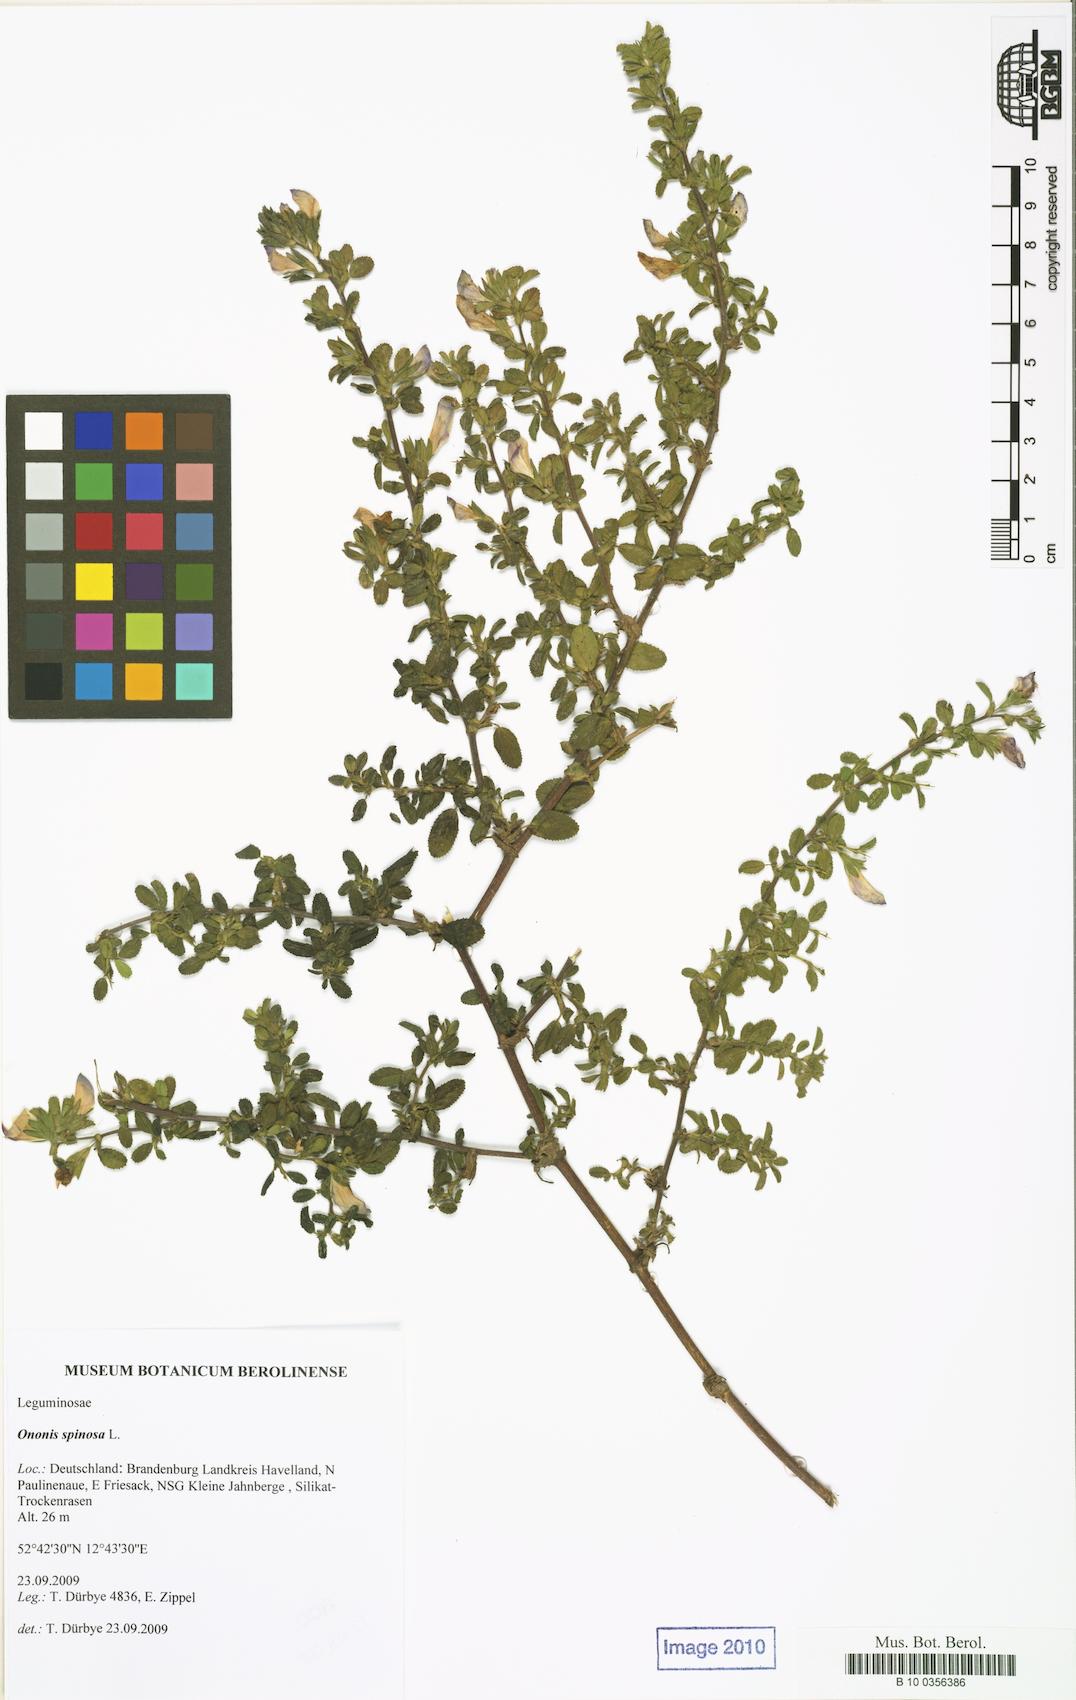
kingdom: Plantae
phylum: Tracheophyta
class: Magnoliopsida
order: Fabales
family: Fabaceae
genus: Ononis
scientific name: Ononis spinosa
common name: Spiny restharrow
